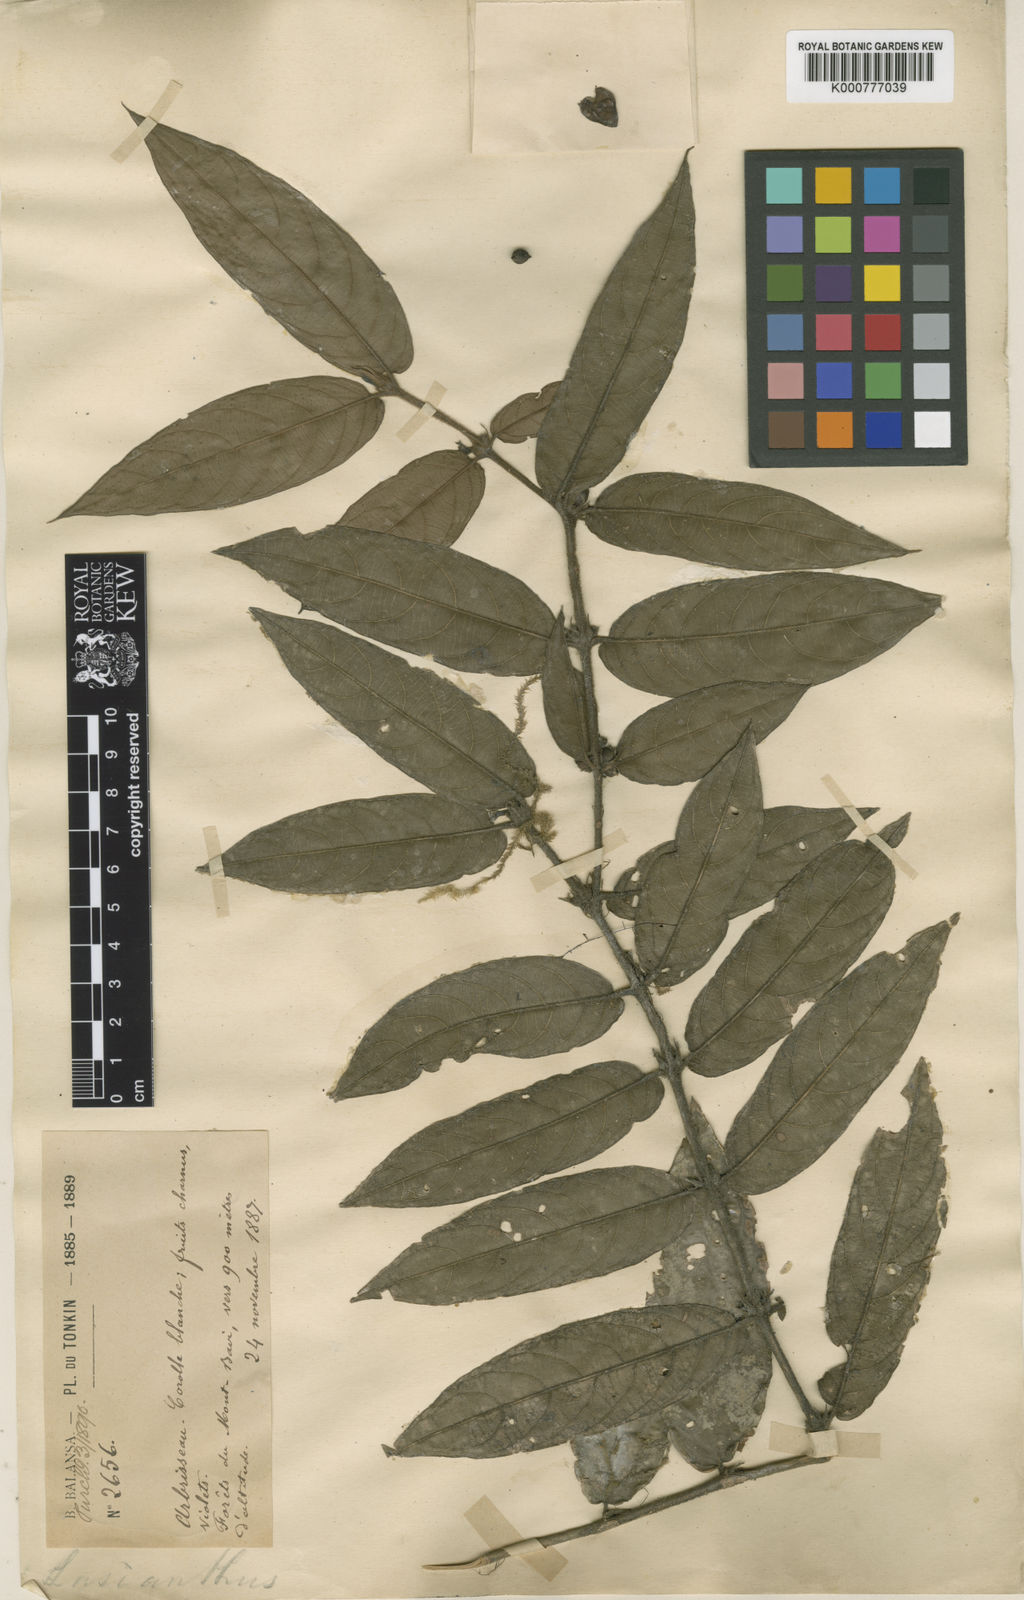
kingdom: Plantae
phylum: Tracheophyta
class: Magnoliopsida
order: Gentianales
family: Rubiaceae
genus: Lasianthus
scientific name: Lasianthus attenuatus
